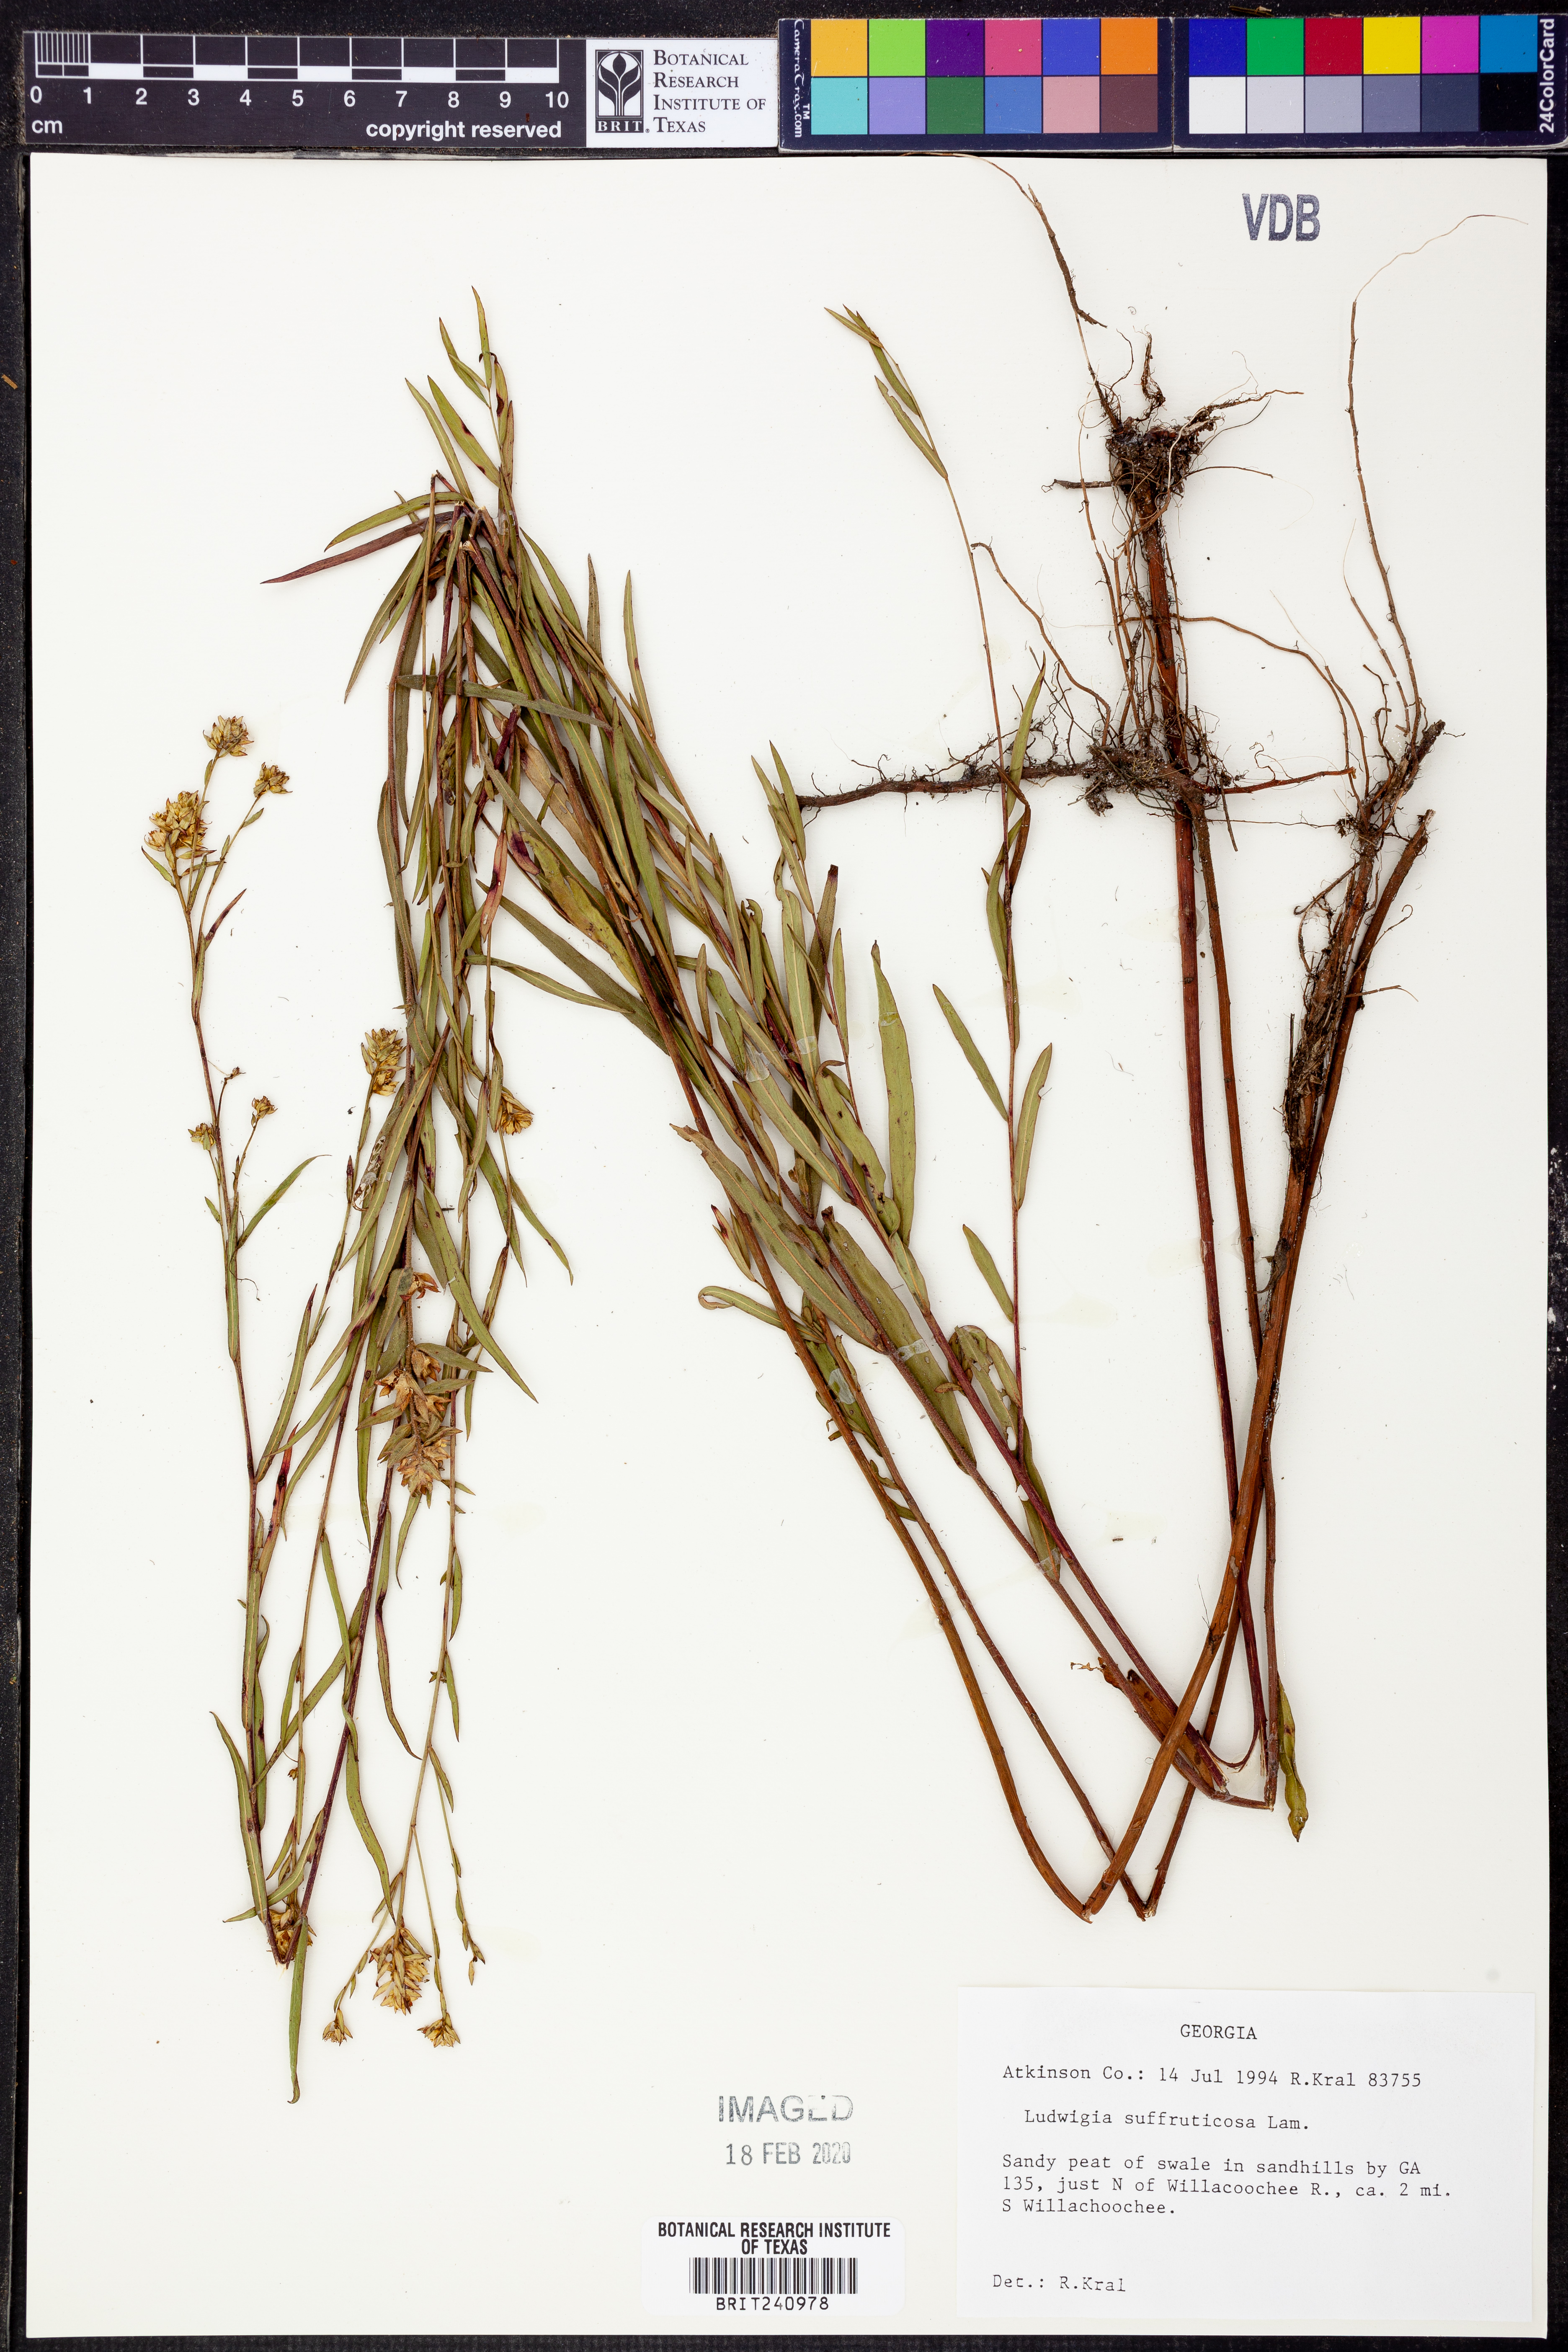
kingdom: Plantae
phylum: Tracheophyta
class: Magnoliopsida
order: Myrtales
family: Onagraceae
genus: Ludwigia
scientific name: Ludwigia suffruticosa
